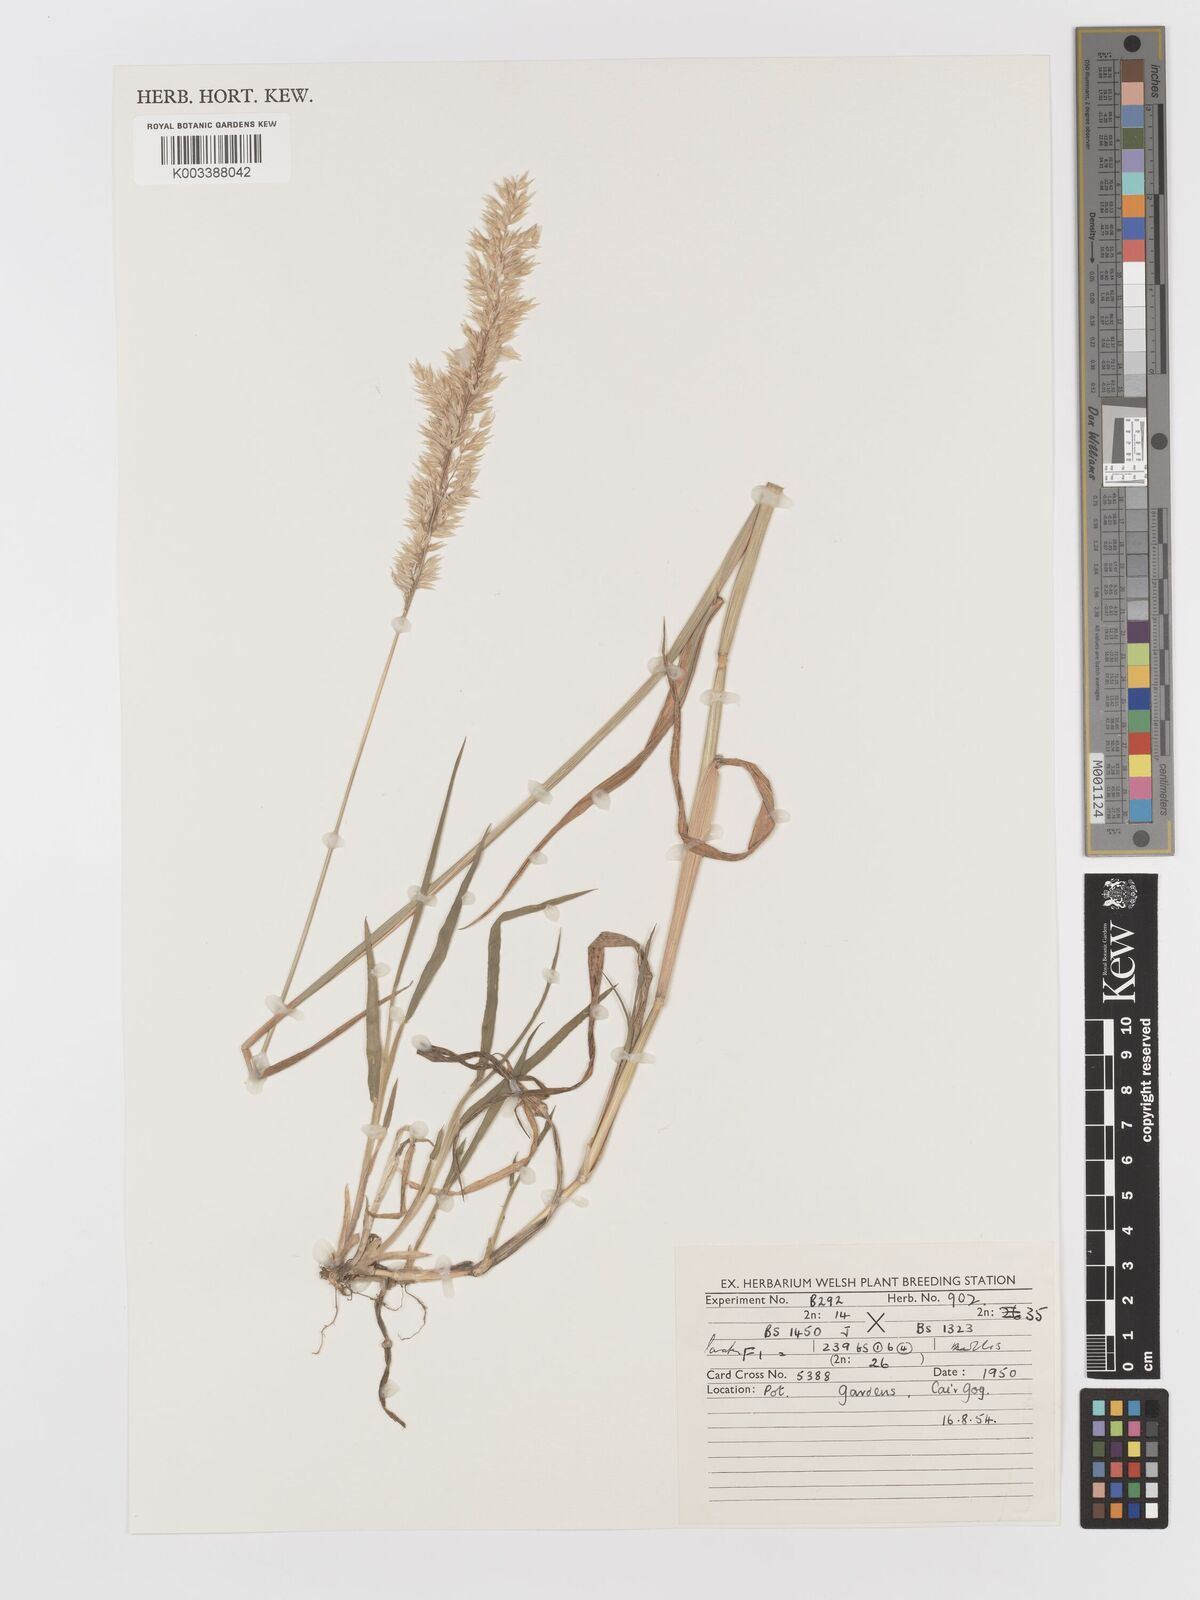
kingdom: Plantae
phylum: Tracheophyta
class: Liliopsida
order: Poales
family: Poaceae
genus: Holcus
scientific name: Holcus lanatus
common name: Yorkshire-fog
